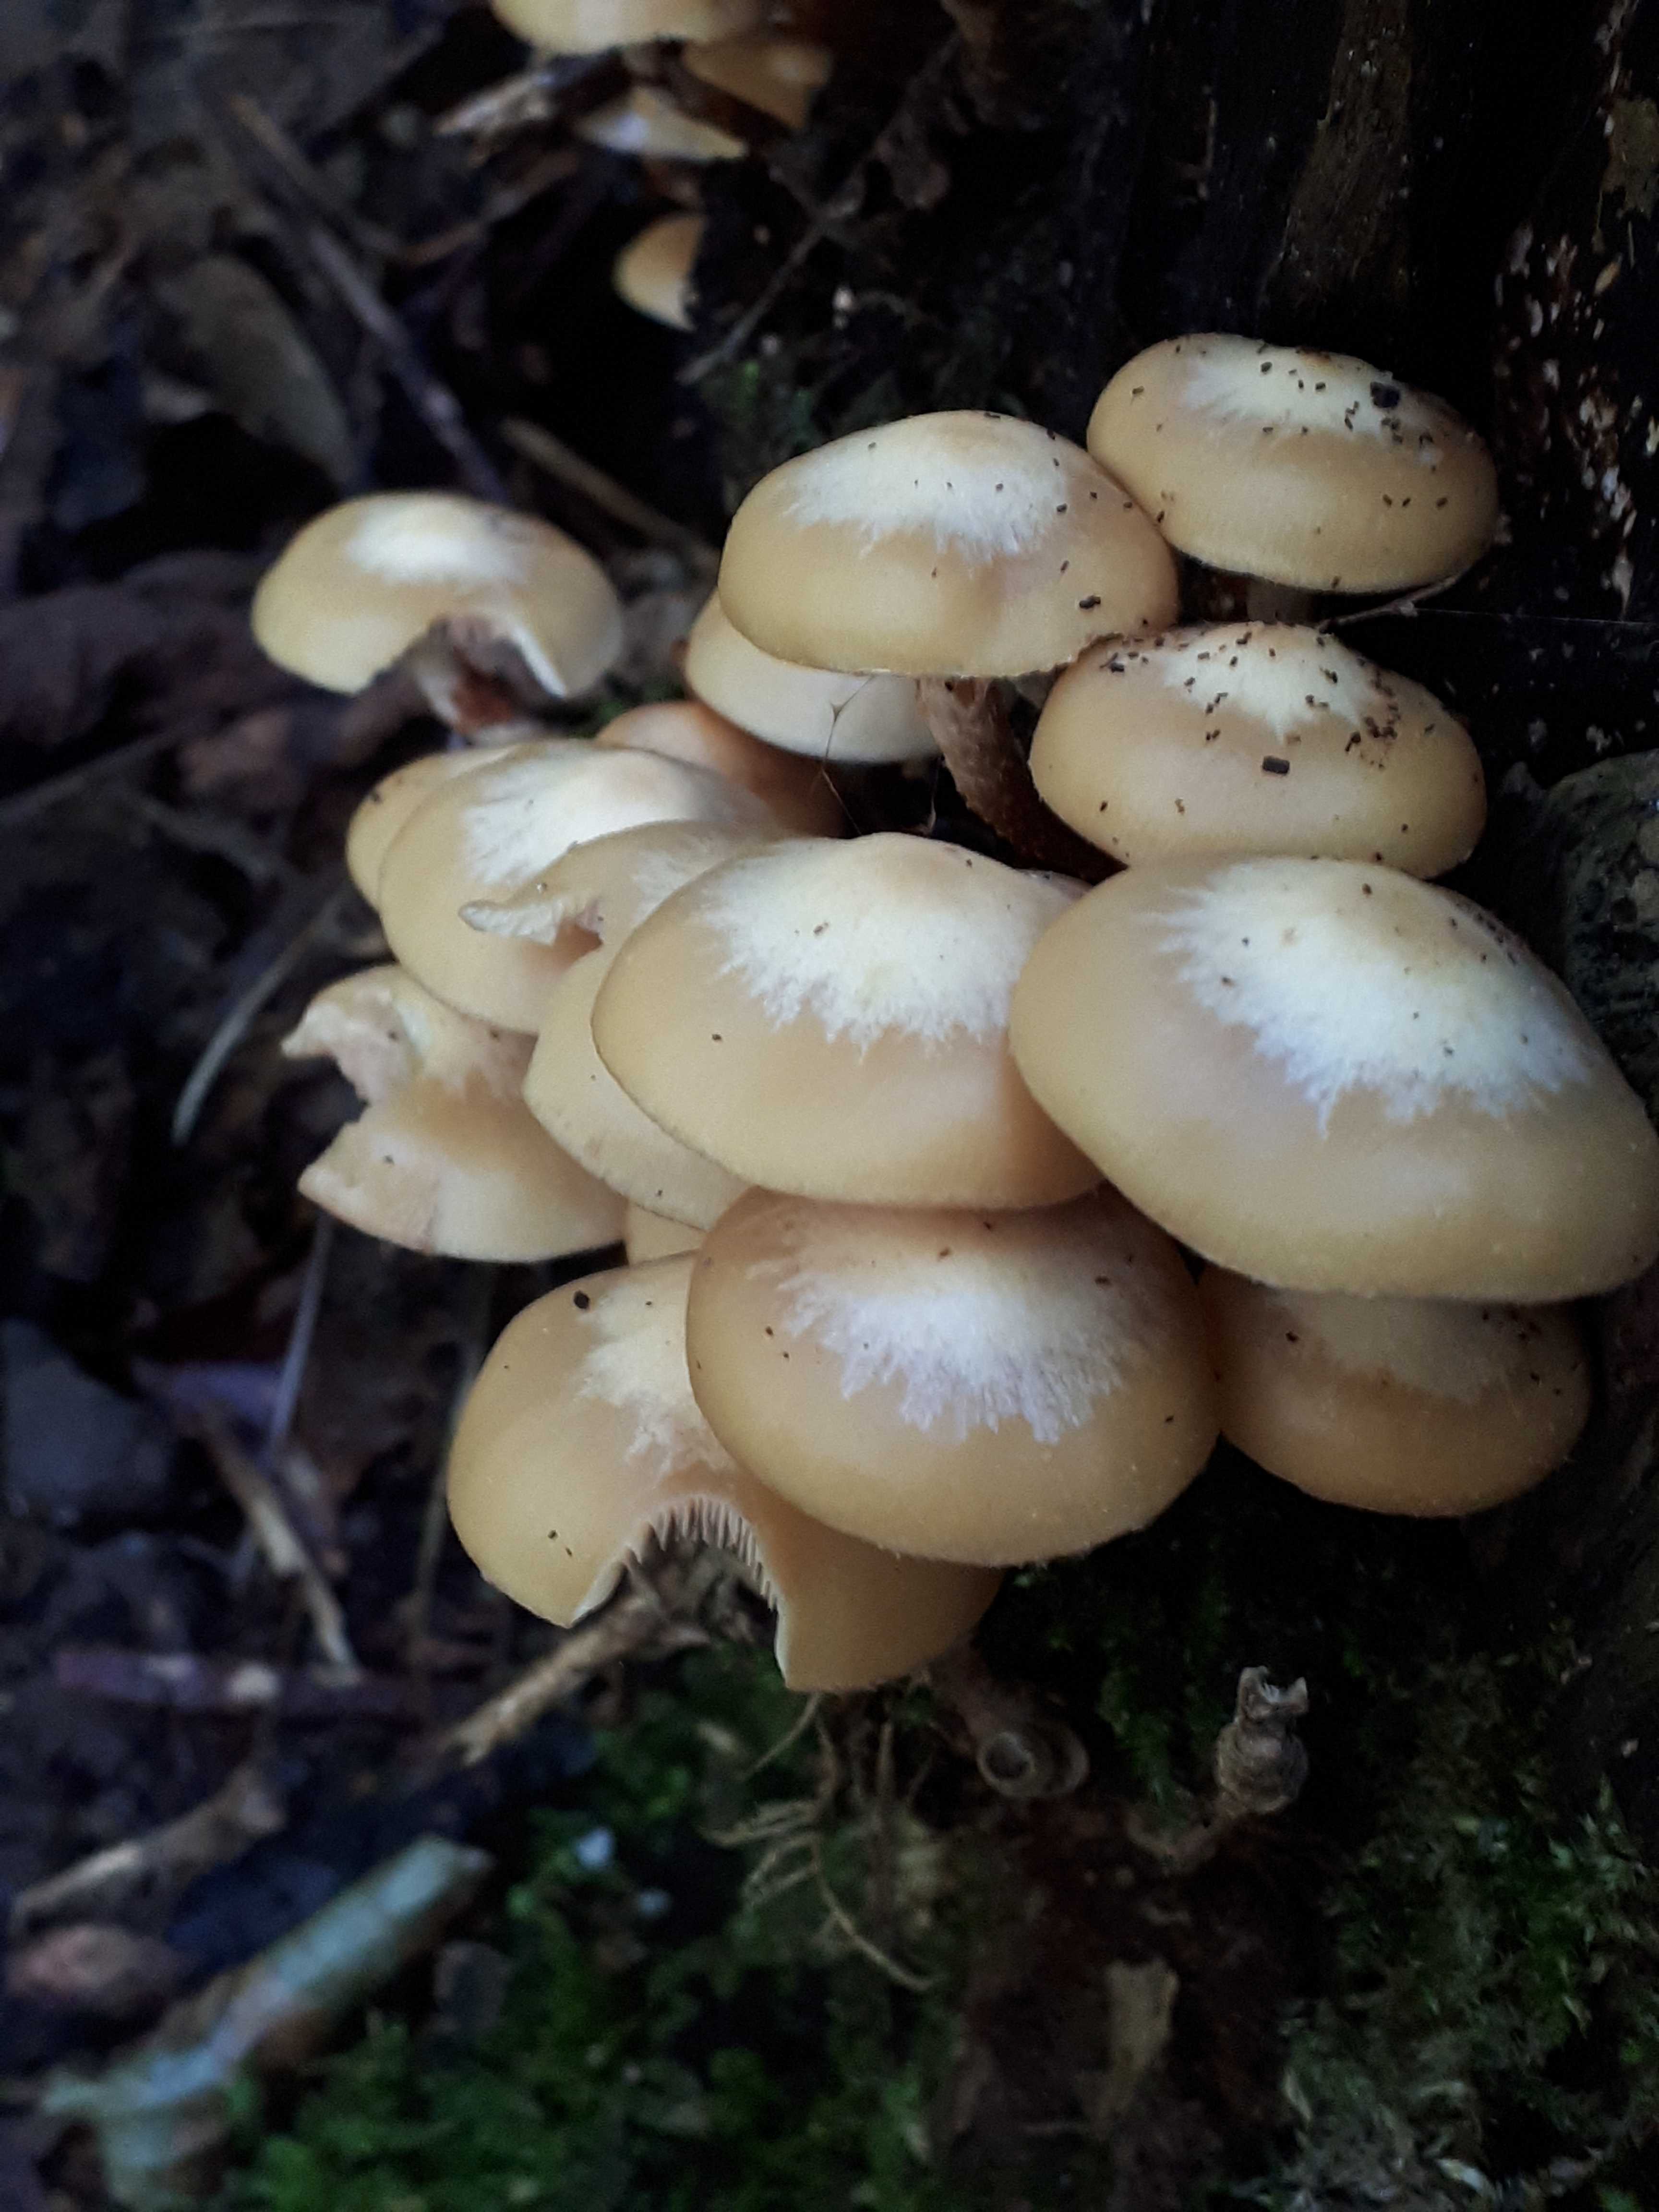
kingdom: Fungi
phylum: Basidiomycota
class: Agaricomycetes
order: Agaricales
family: Strophariaceae
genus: Kuehneromyces
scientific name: Kuehneromyces mutabilis
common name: foranderlig skælhat
